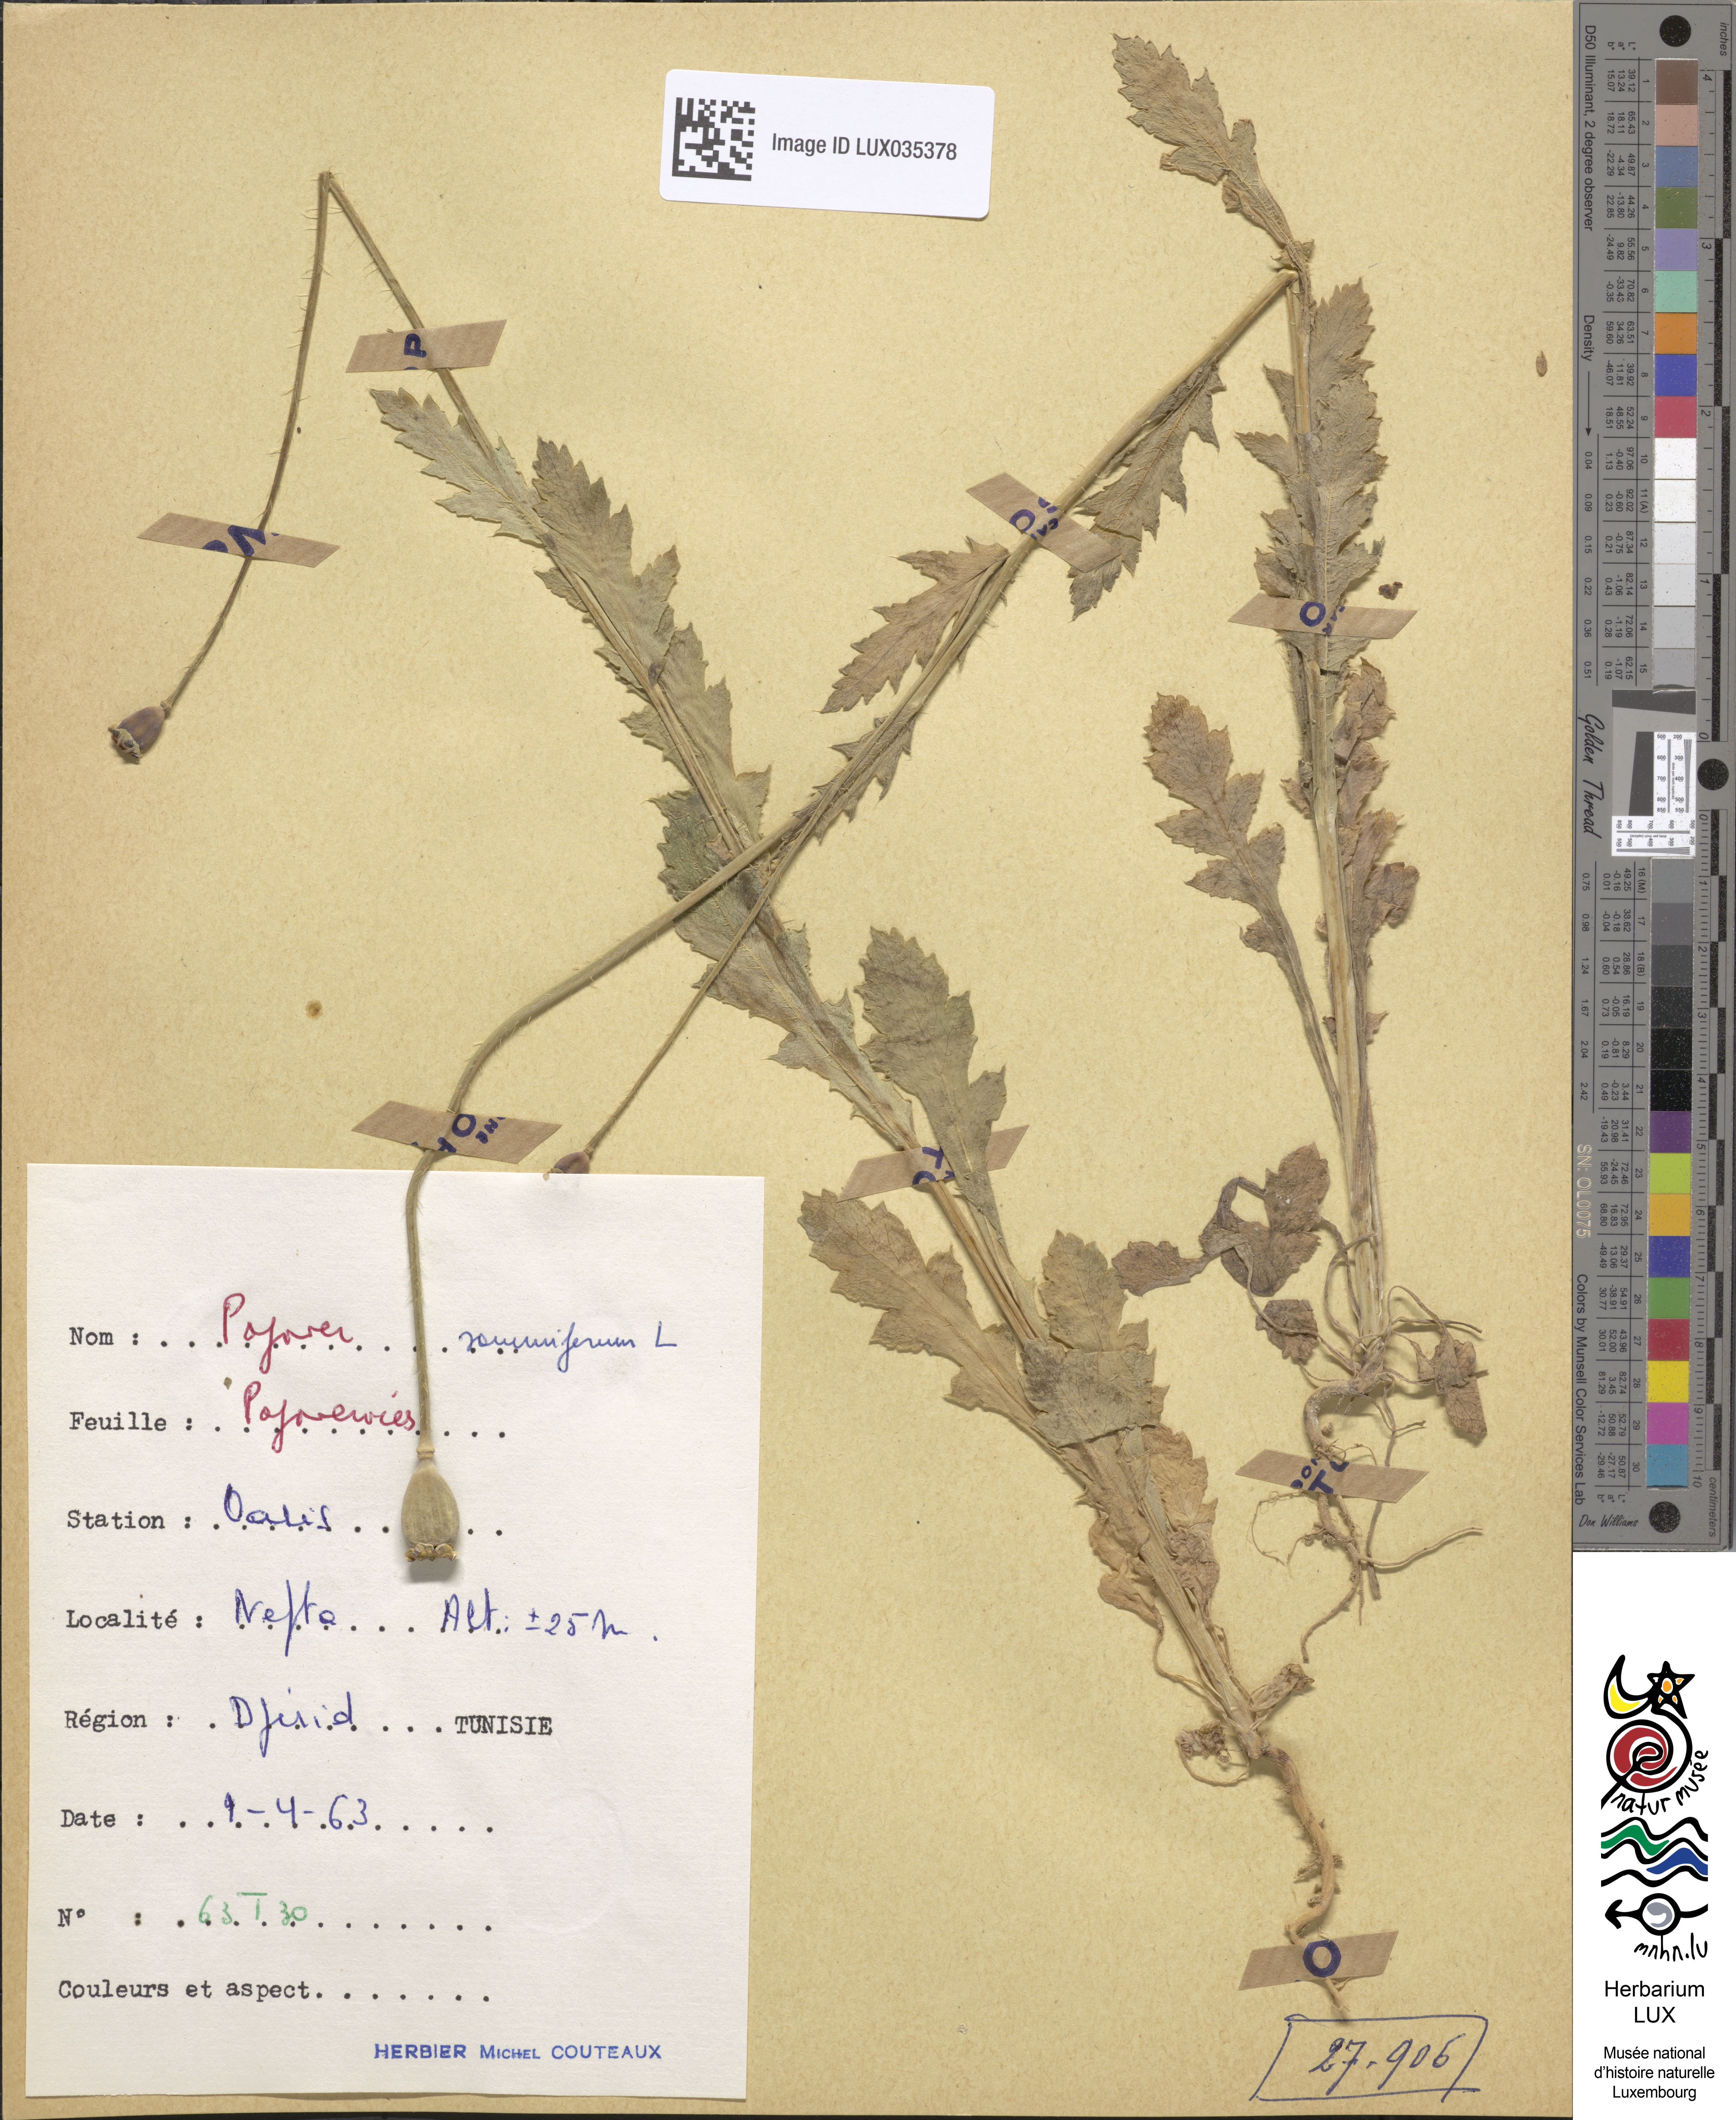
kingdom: Plantae
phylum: Tracheophyta
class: Magnoliopsida
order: Ranunculales
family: Papaveraceae
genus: Papaver
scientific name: Papaver somniferum
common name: Opium poppy
